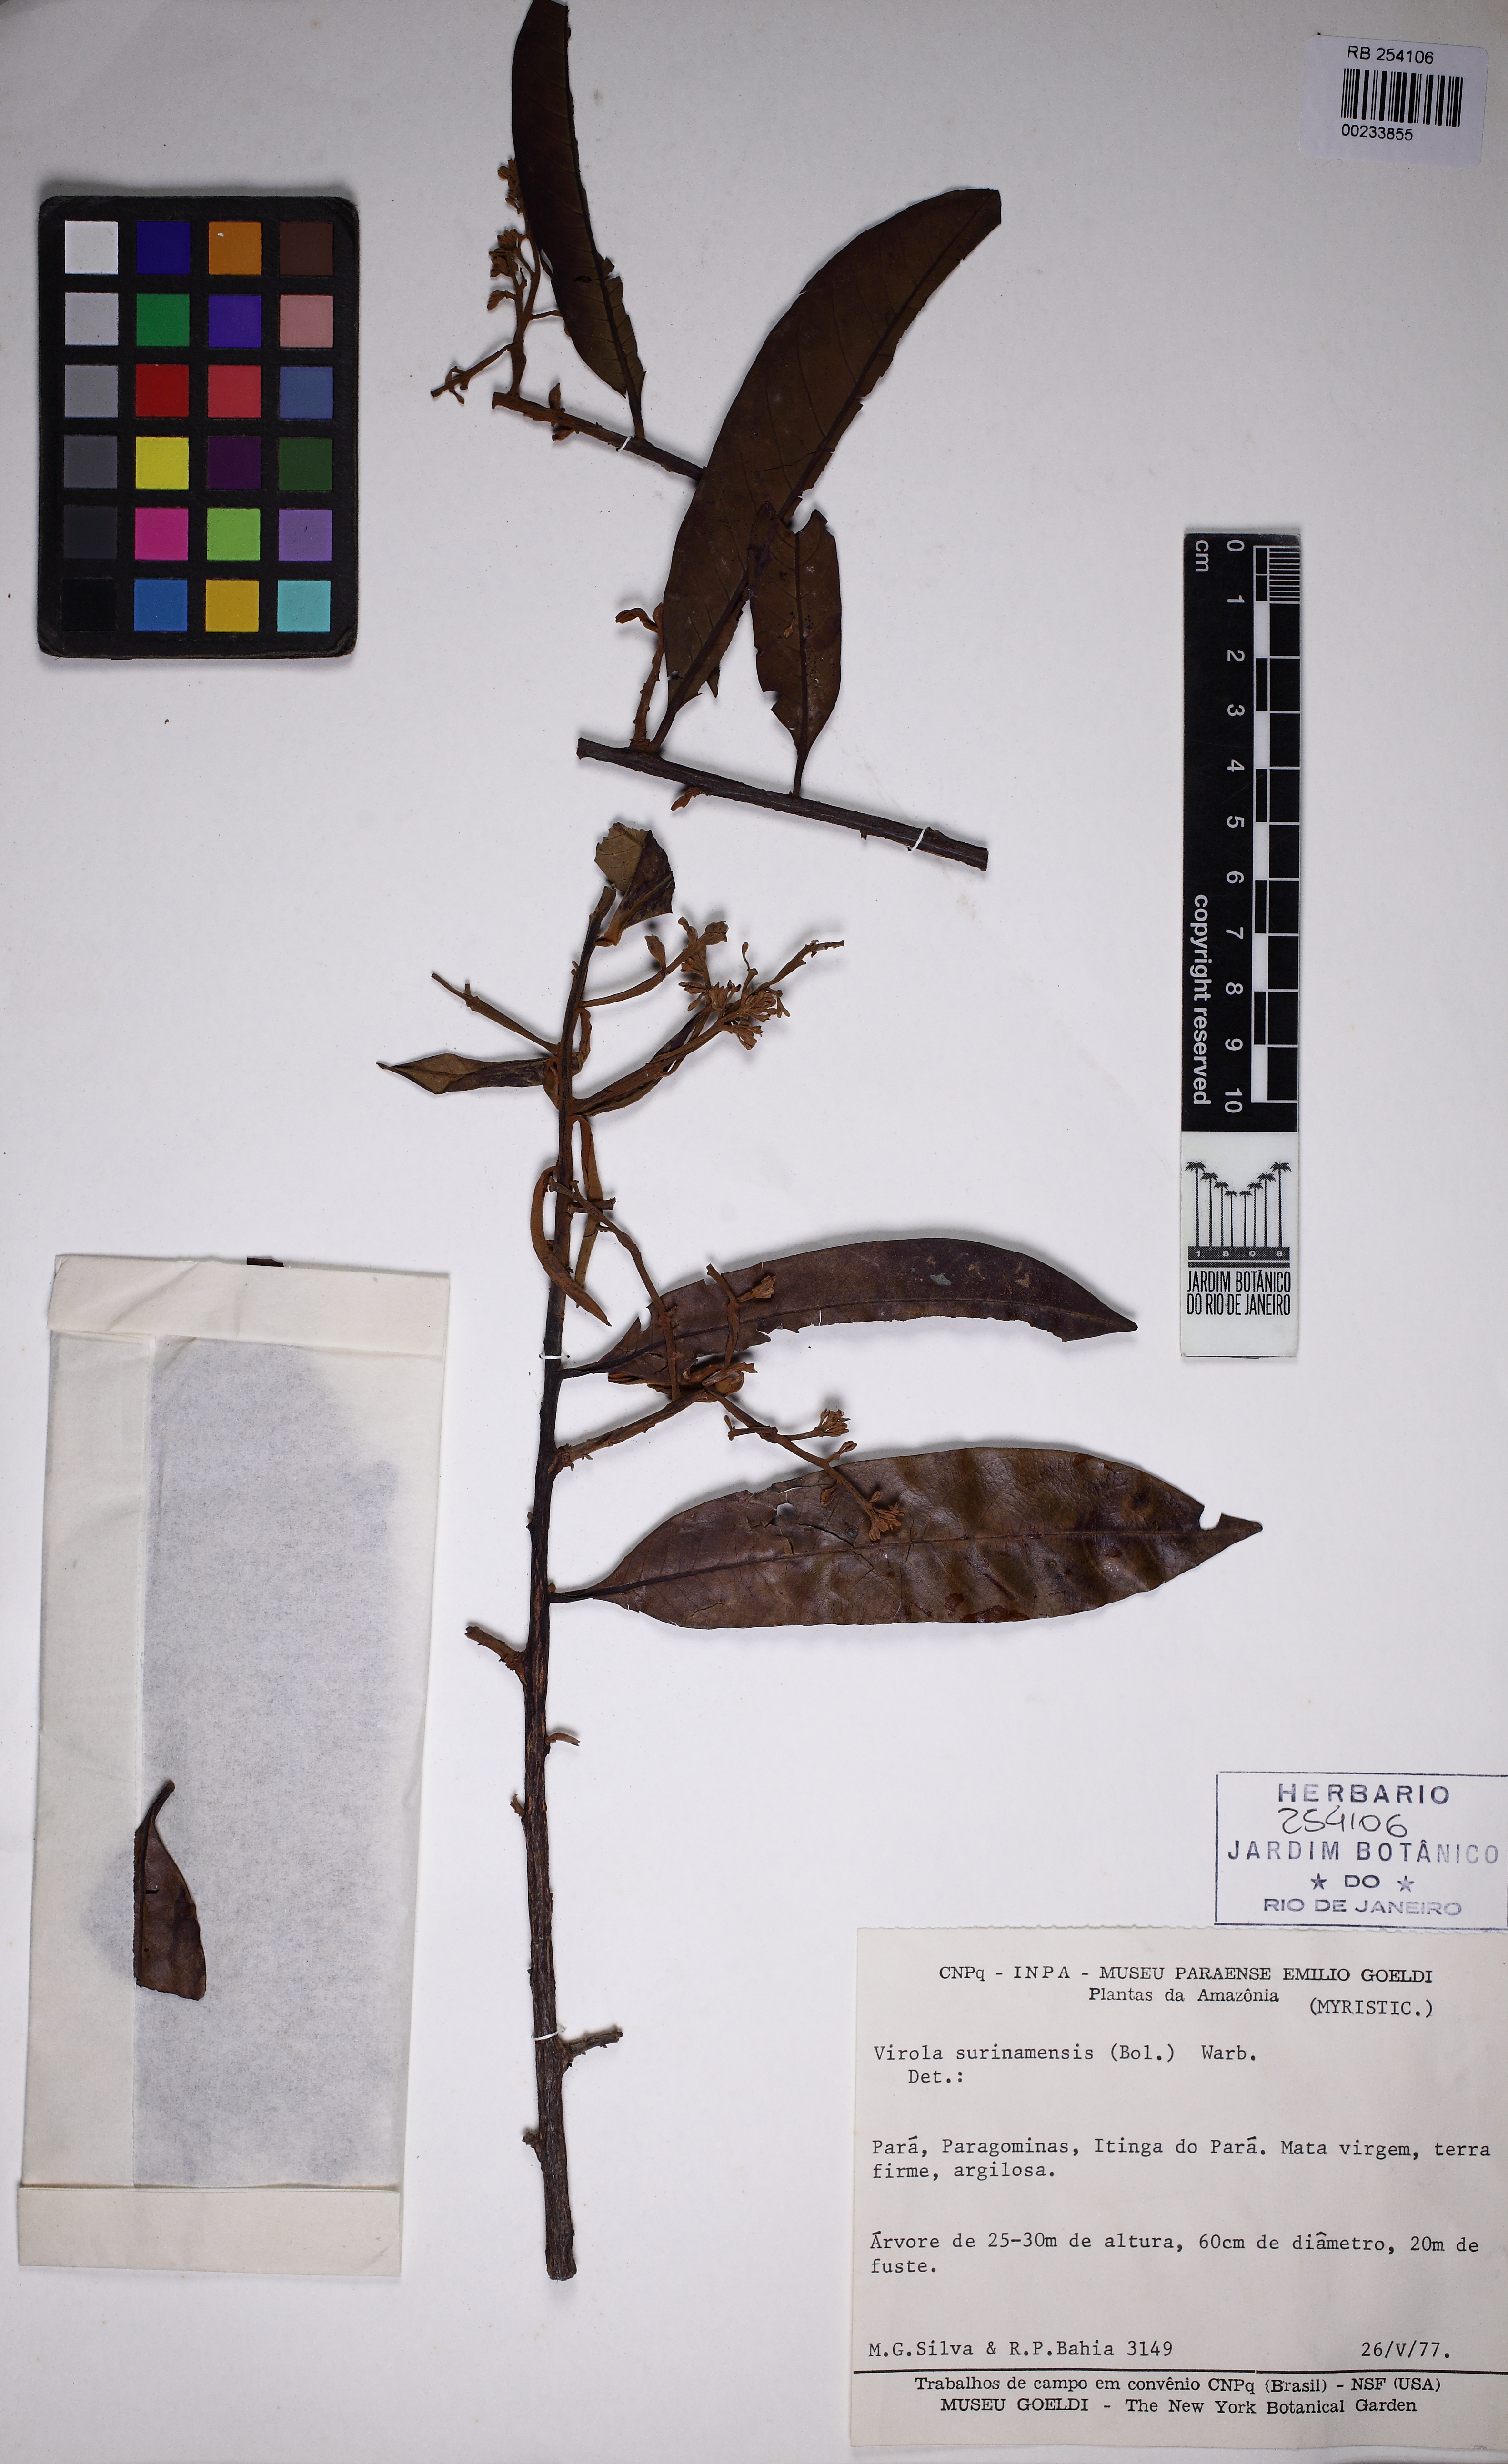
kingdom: Plantae
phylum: Tracheophyta
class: Magnoliopsida
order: Magnoliales
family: Myristicaceae
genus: Virola
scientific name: Virola surinamensis
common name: Baboonwood
